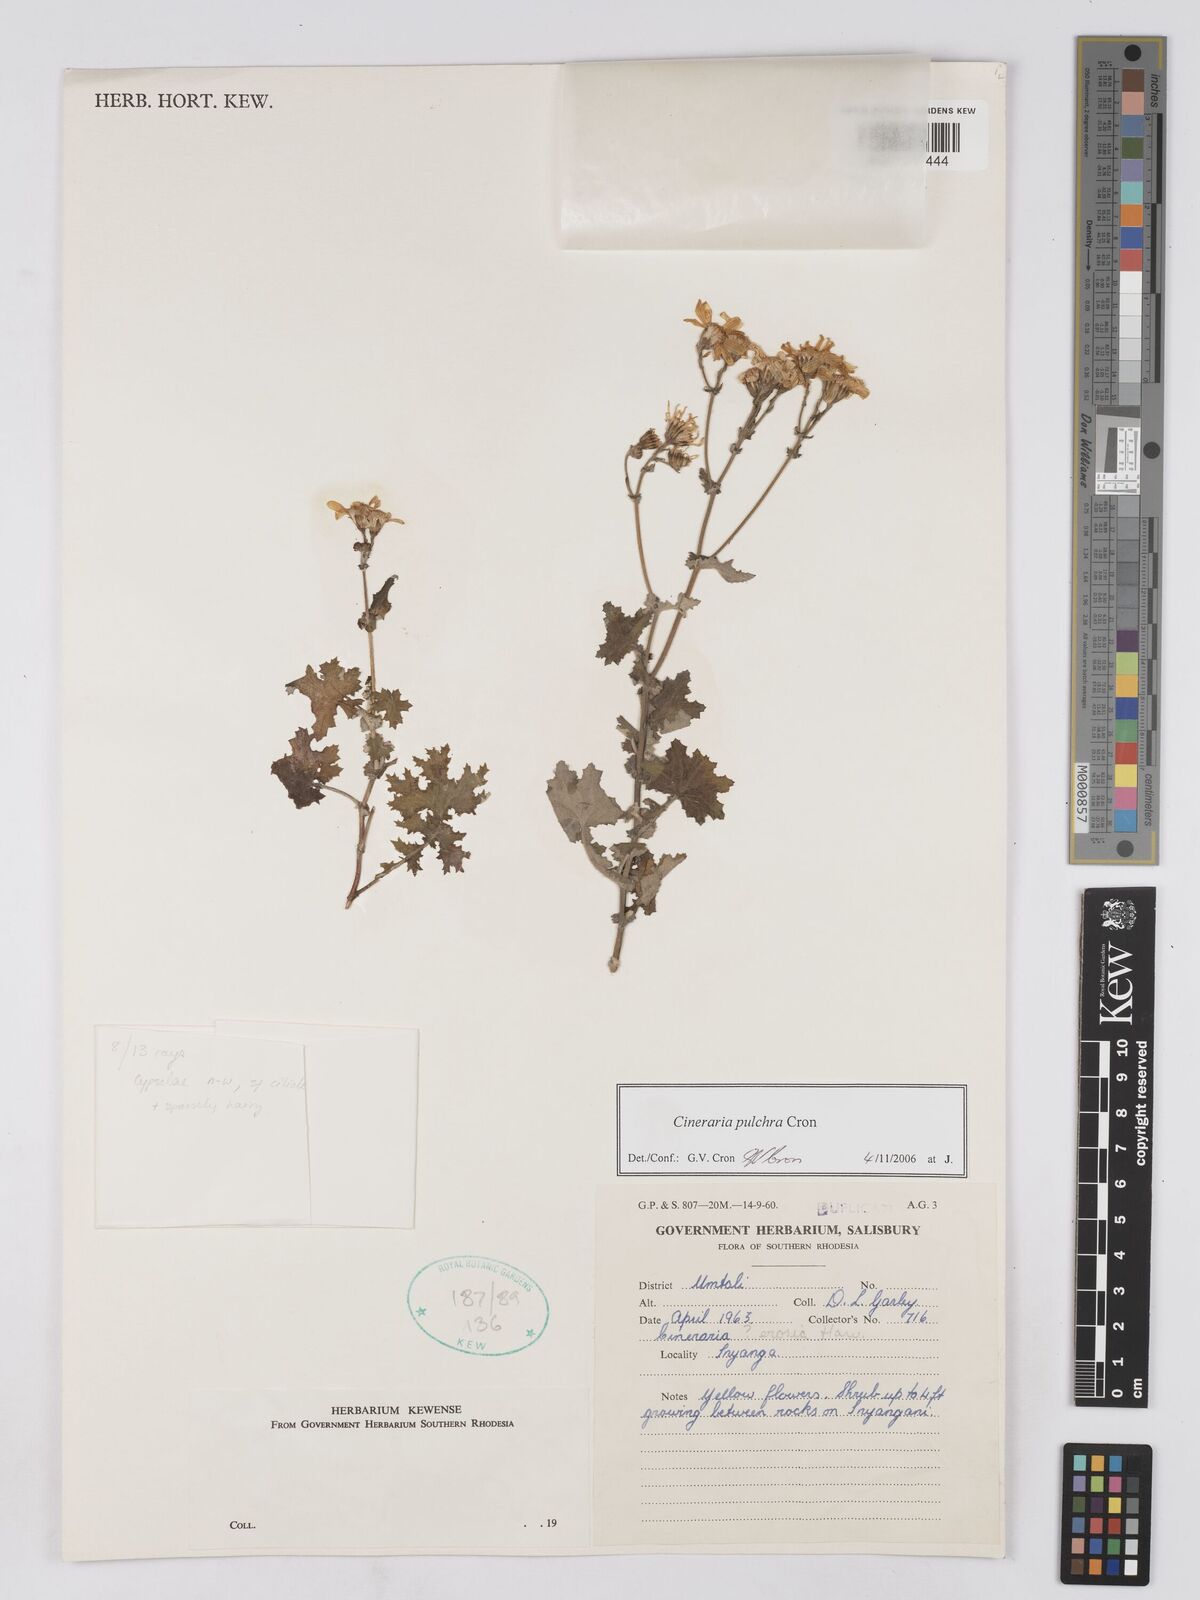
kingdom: Plantae
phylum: Tracheophyta
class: Magnoliopsida
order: Asterales
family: Asteraceae
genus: Cineraria
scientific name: Cineraria pulchra
